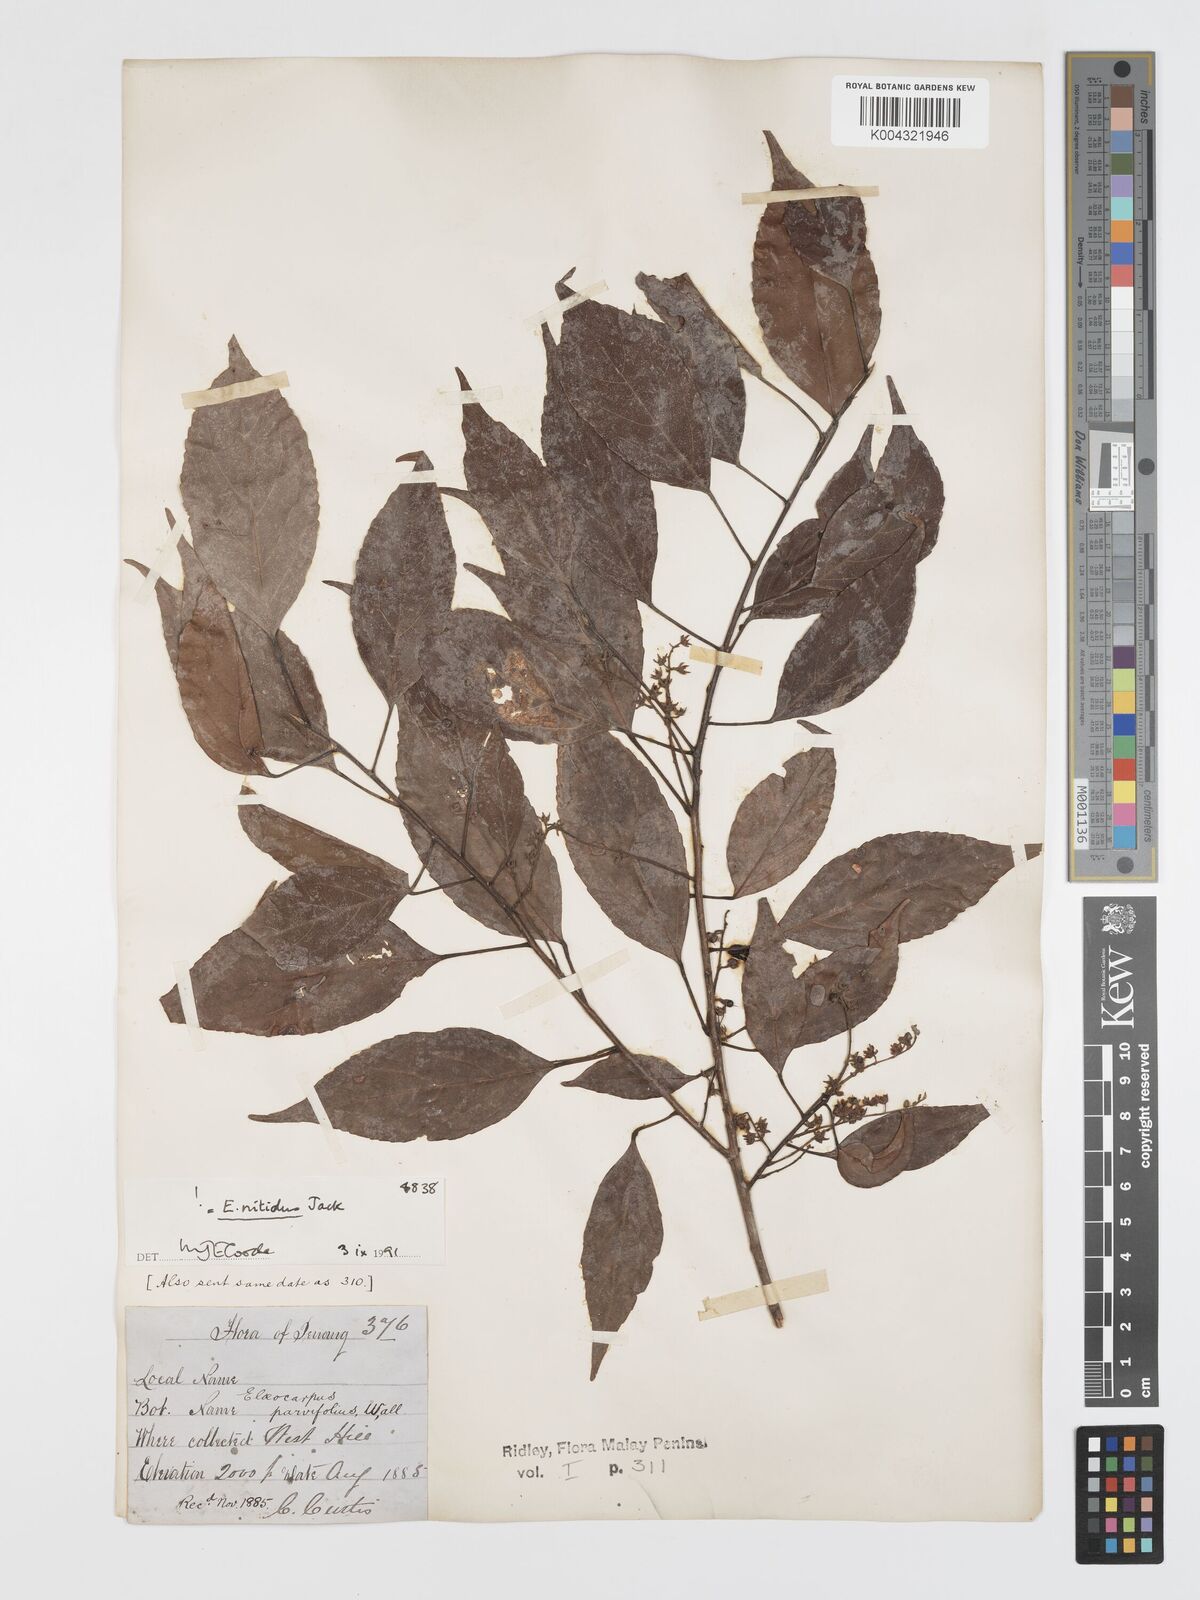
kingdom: Plantae
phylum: Tracheophyta
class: Magnoliopsida
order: Oxalidales
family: Elaeocarpaceae
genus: Elaeocarpus
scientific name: Elaeocarpus nitidus
